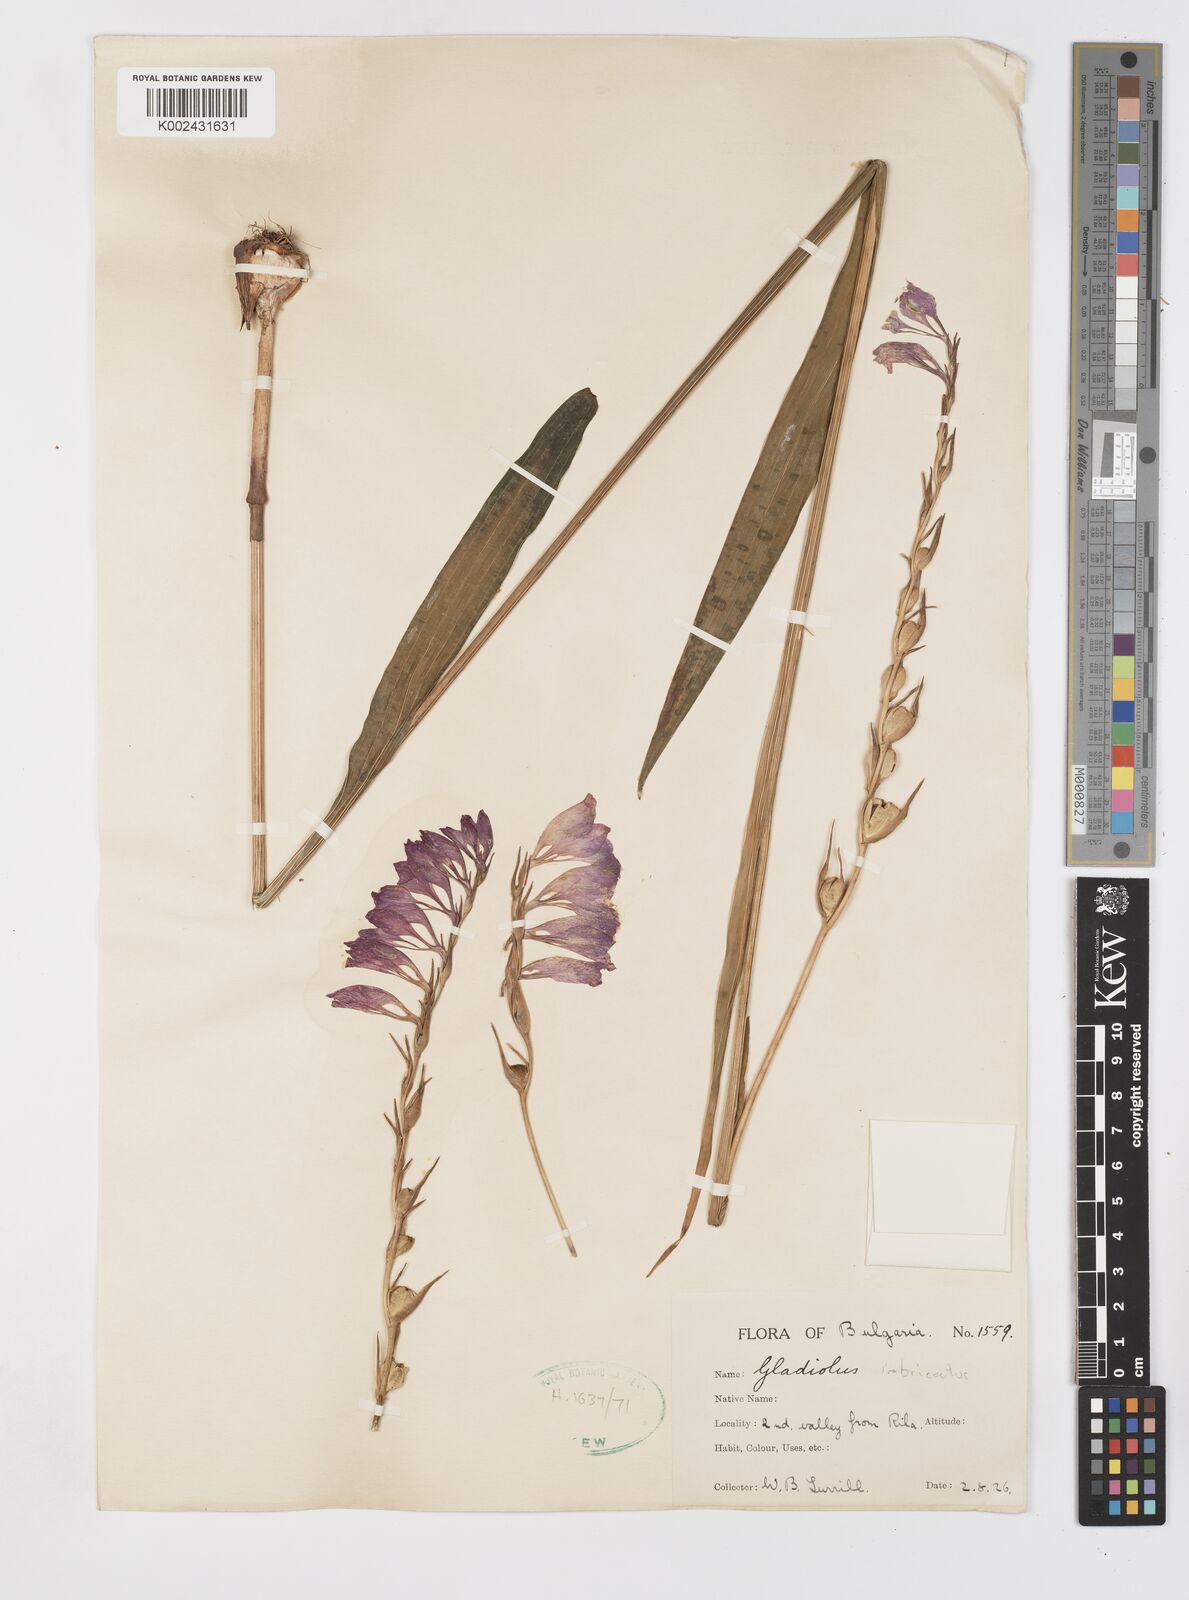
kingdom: Plantae
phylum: Tracheophyta
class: Liliopsida
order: Asparagales
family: Iridaceae
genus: Gladiolus
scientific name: Gladiolus imbricatus
